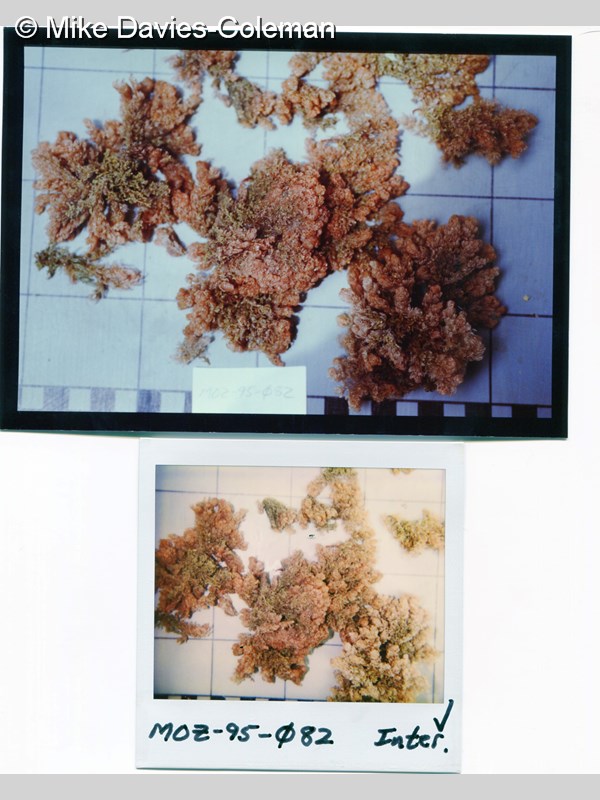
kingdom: Animalia
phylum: Bryozoa
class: Gymnolaemata
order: Cheilostomatida
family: Candidae
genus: Menipea
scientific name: Menipea crispa
